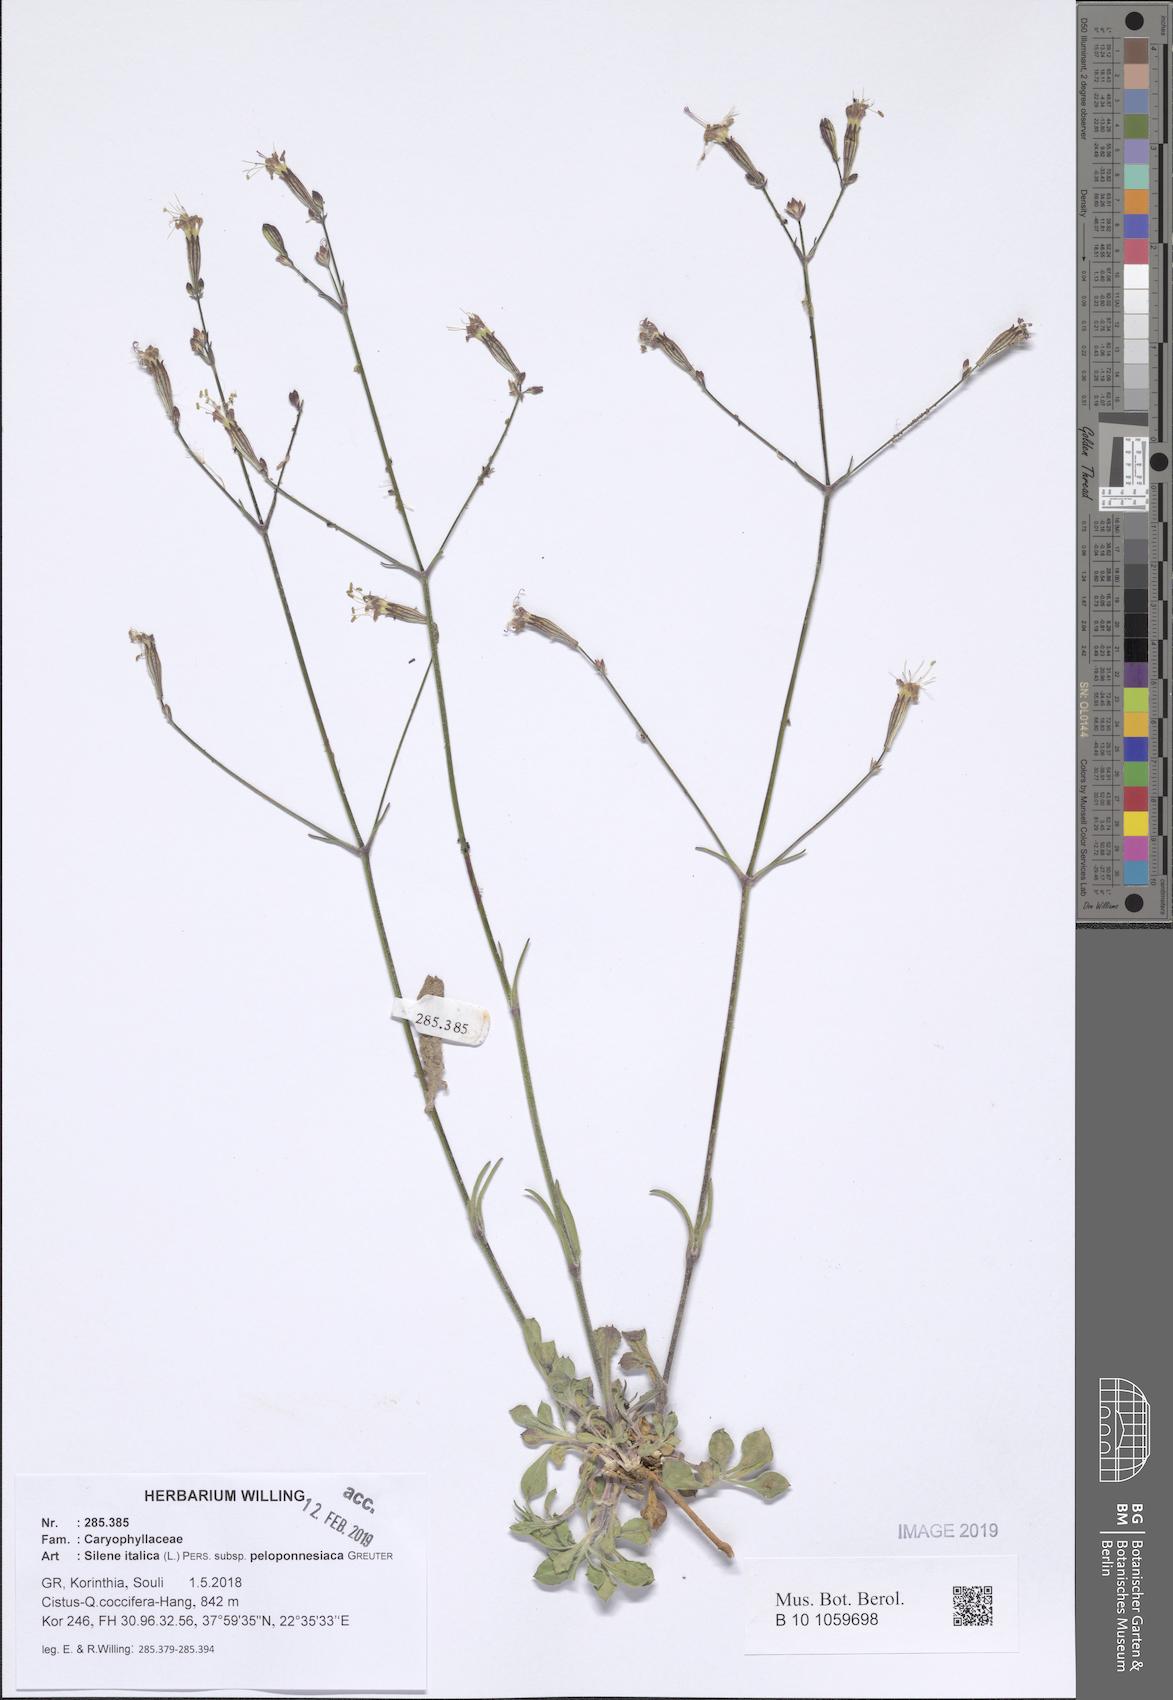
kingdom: Plantae
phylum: Tracheophyta
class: Magnoliopsida
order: Caryophyllales
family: Caryophyllaceae
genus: Silene
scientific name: Silene italica
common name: Italian catchfly
